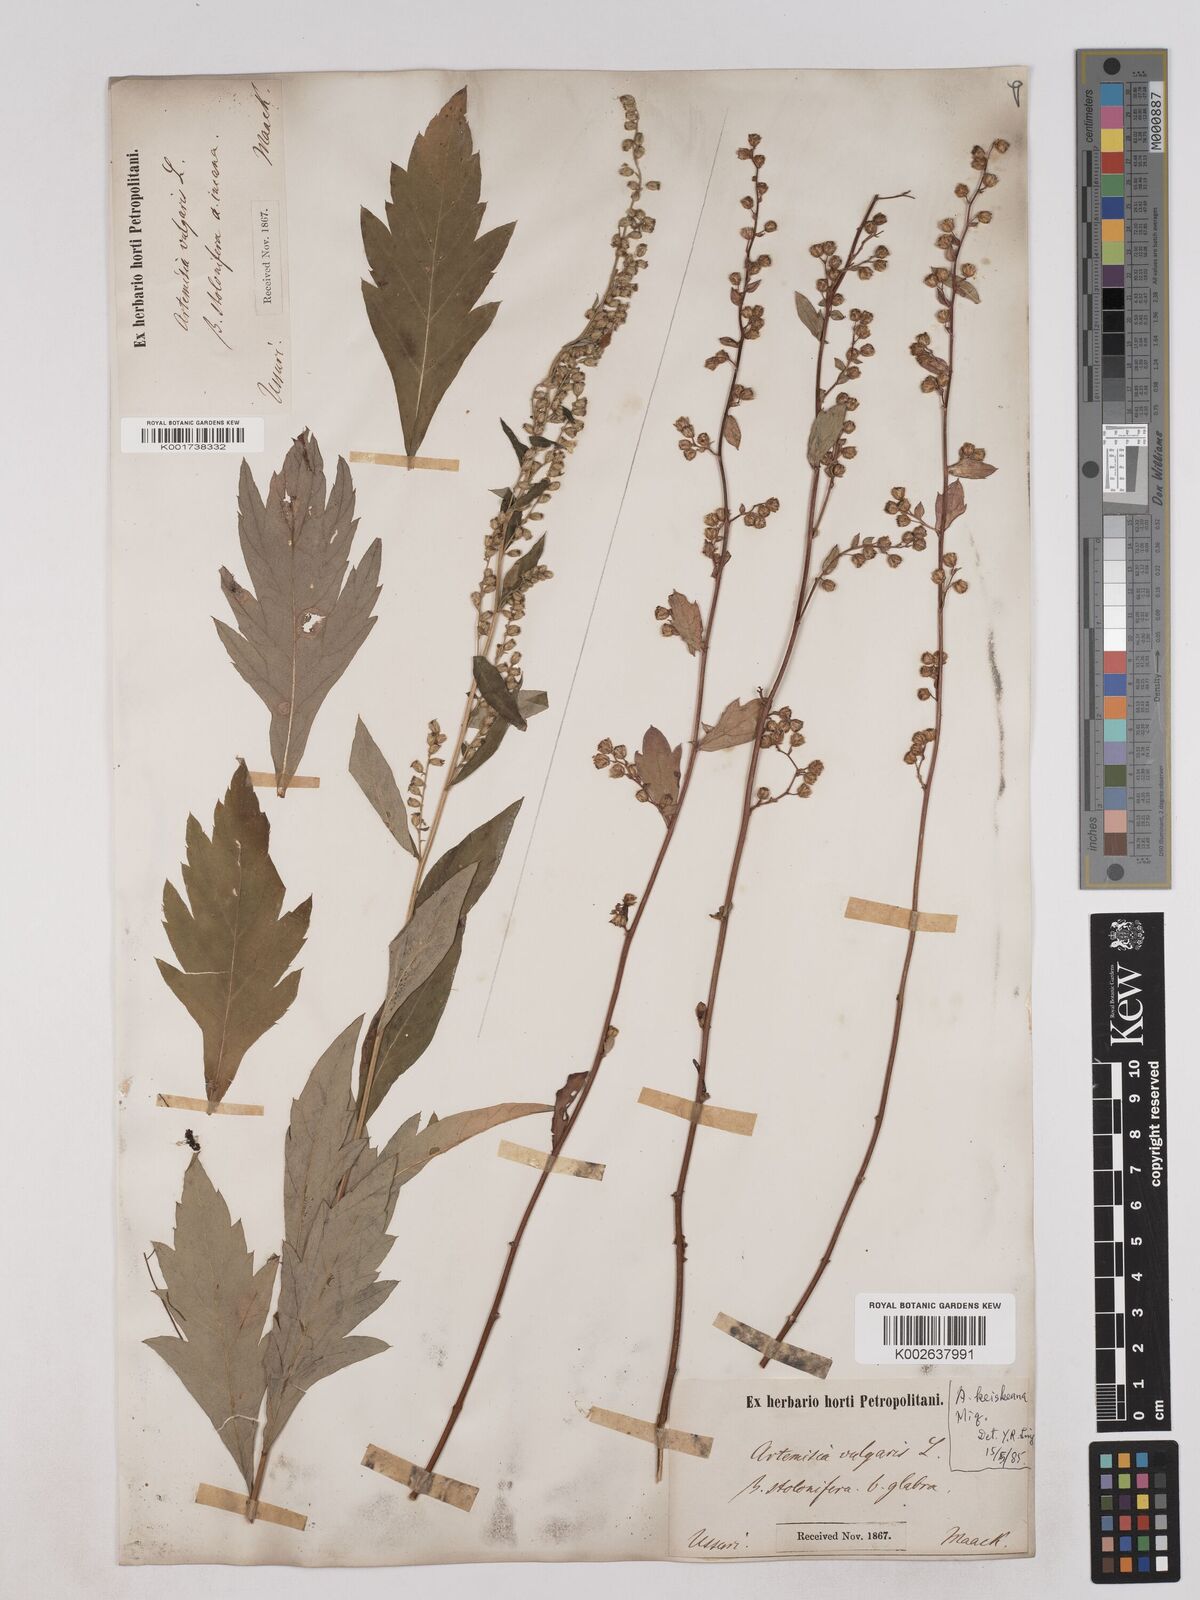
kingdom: Plantae
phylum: Tracheophyta
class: Magnoliopsida
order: Asterales
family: Asteraceae
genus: Artemisia
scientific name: Artemisia igniaria
